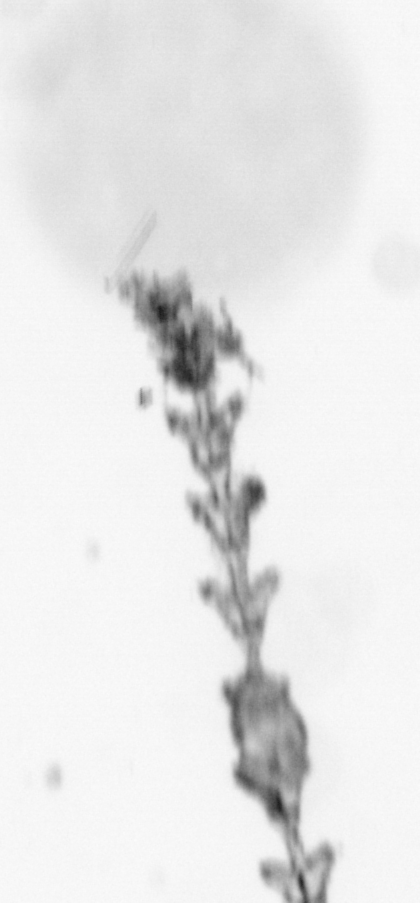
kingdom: Animalia
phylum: Cnidaria
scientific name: Cnidaria
